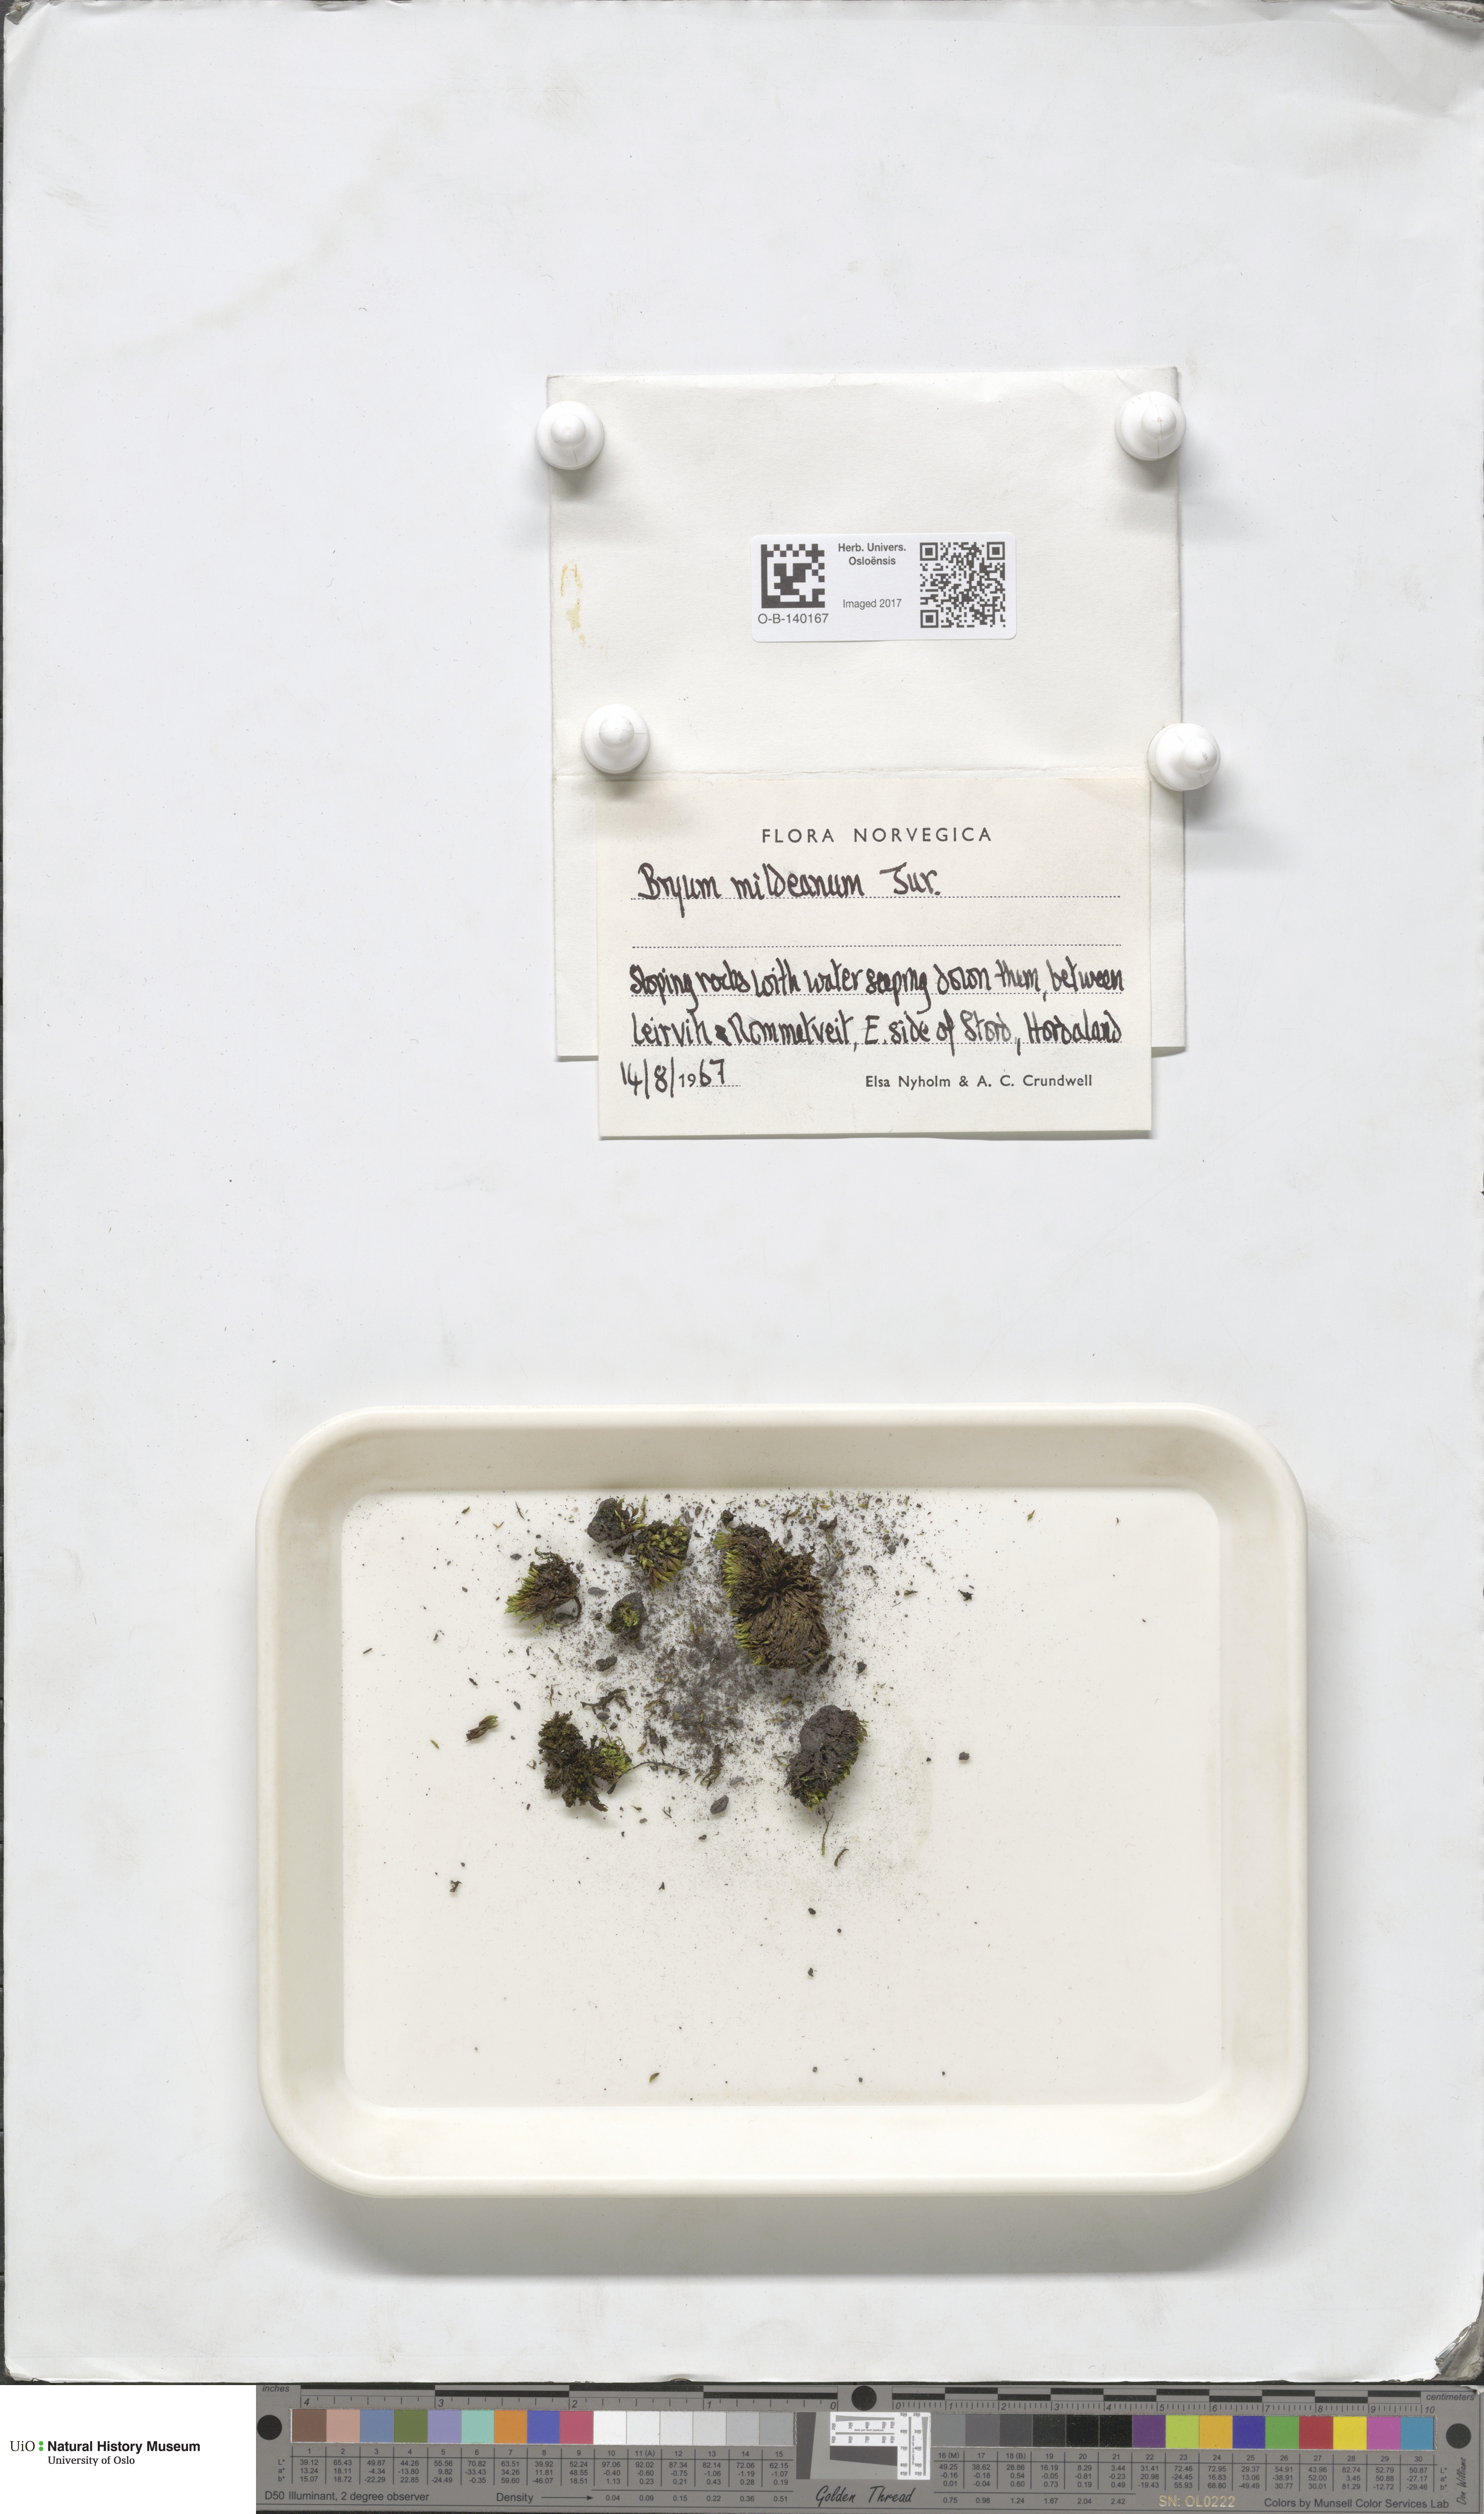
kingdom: Plantae
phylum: Bryophyta
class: Bryopsida
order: Bryales
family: Bryaceae
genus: Imbribryum
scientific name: Imbribryum mildeanum
